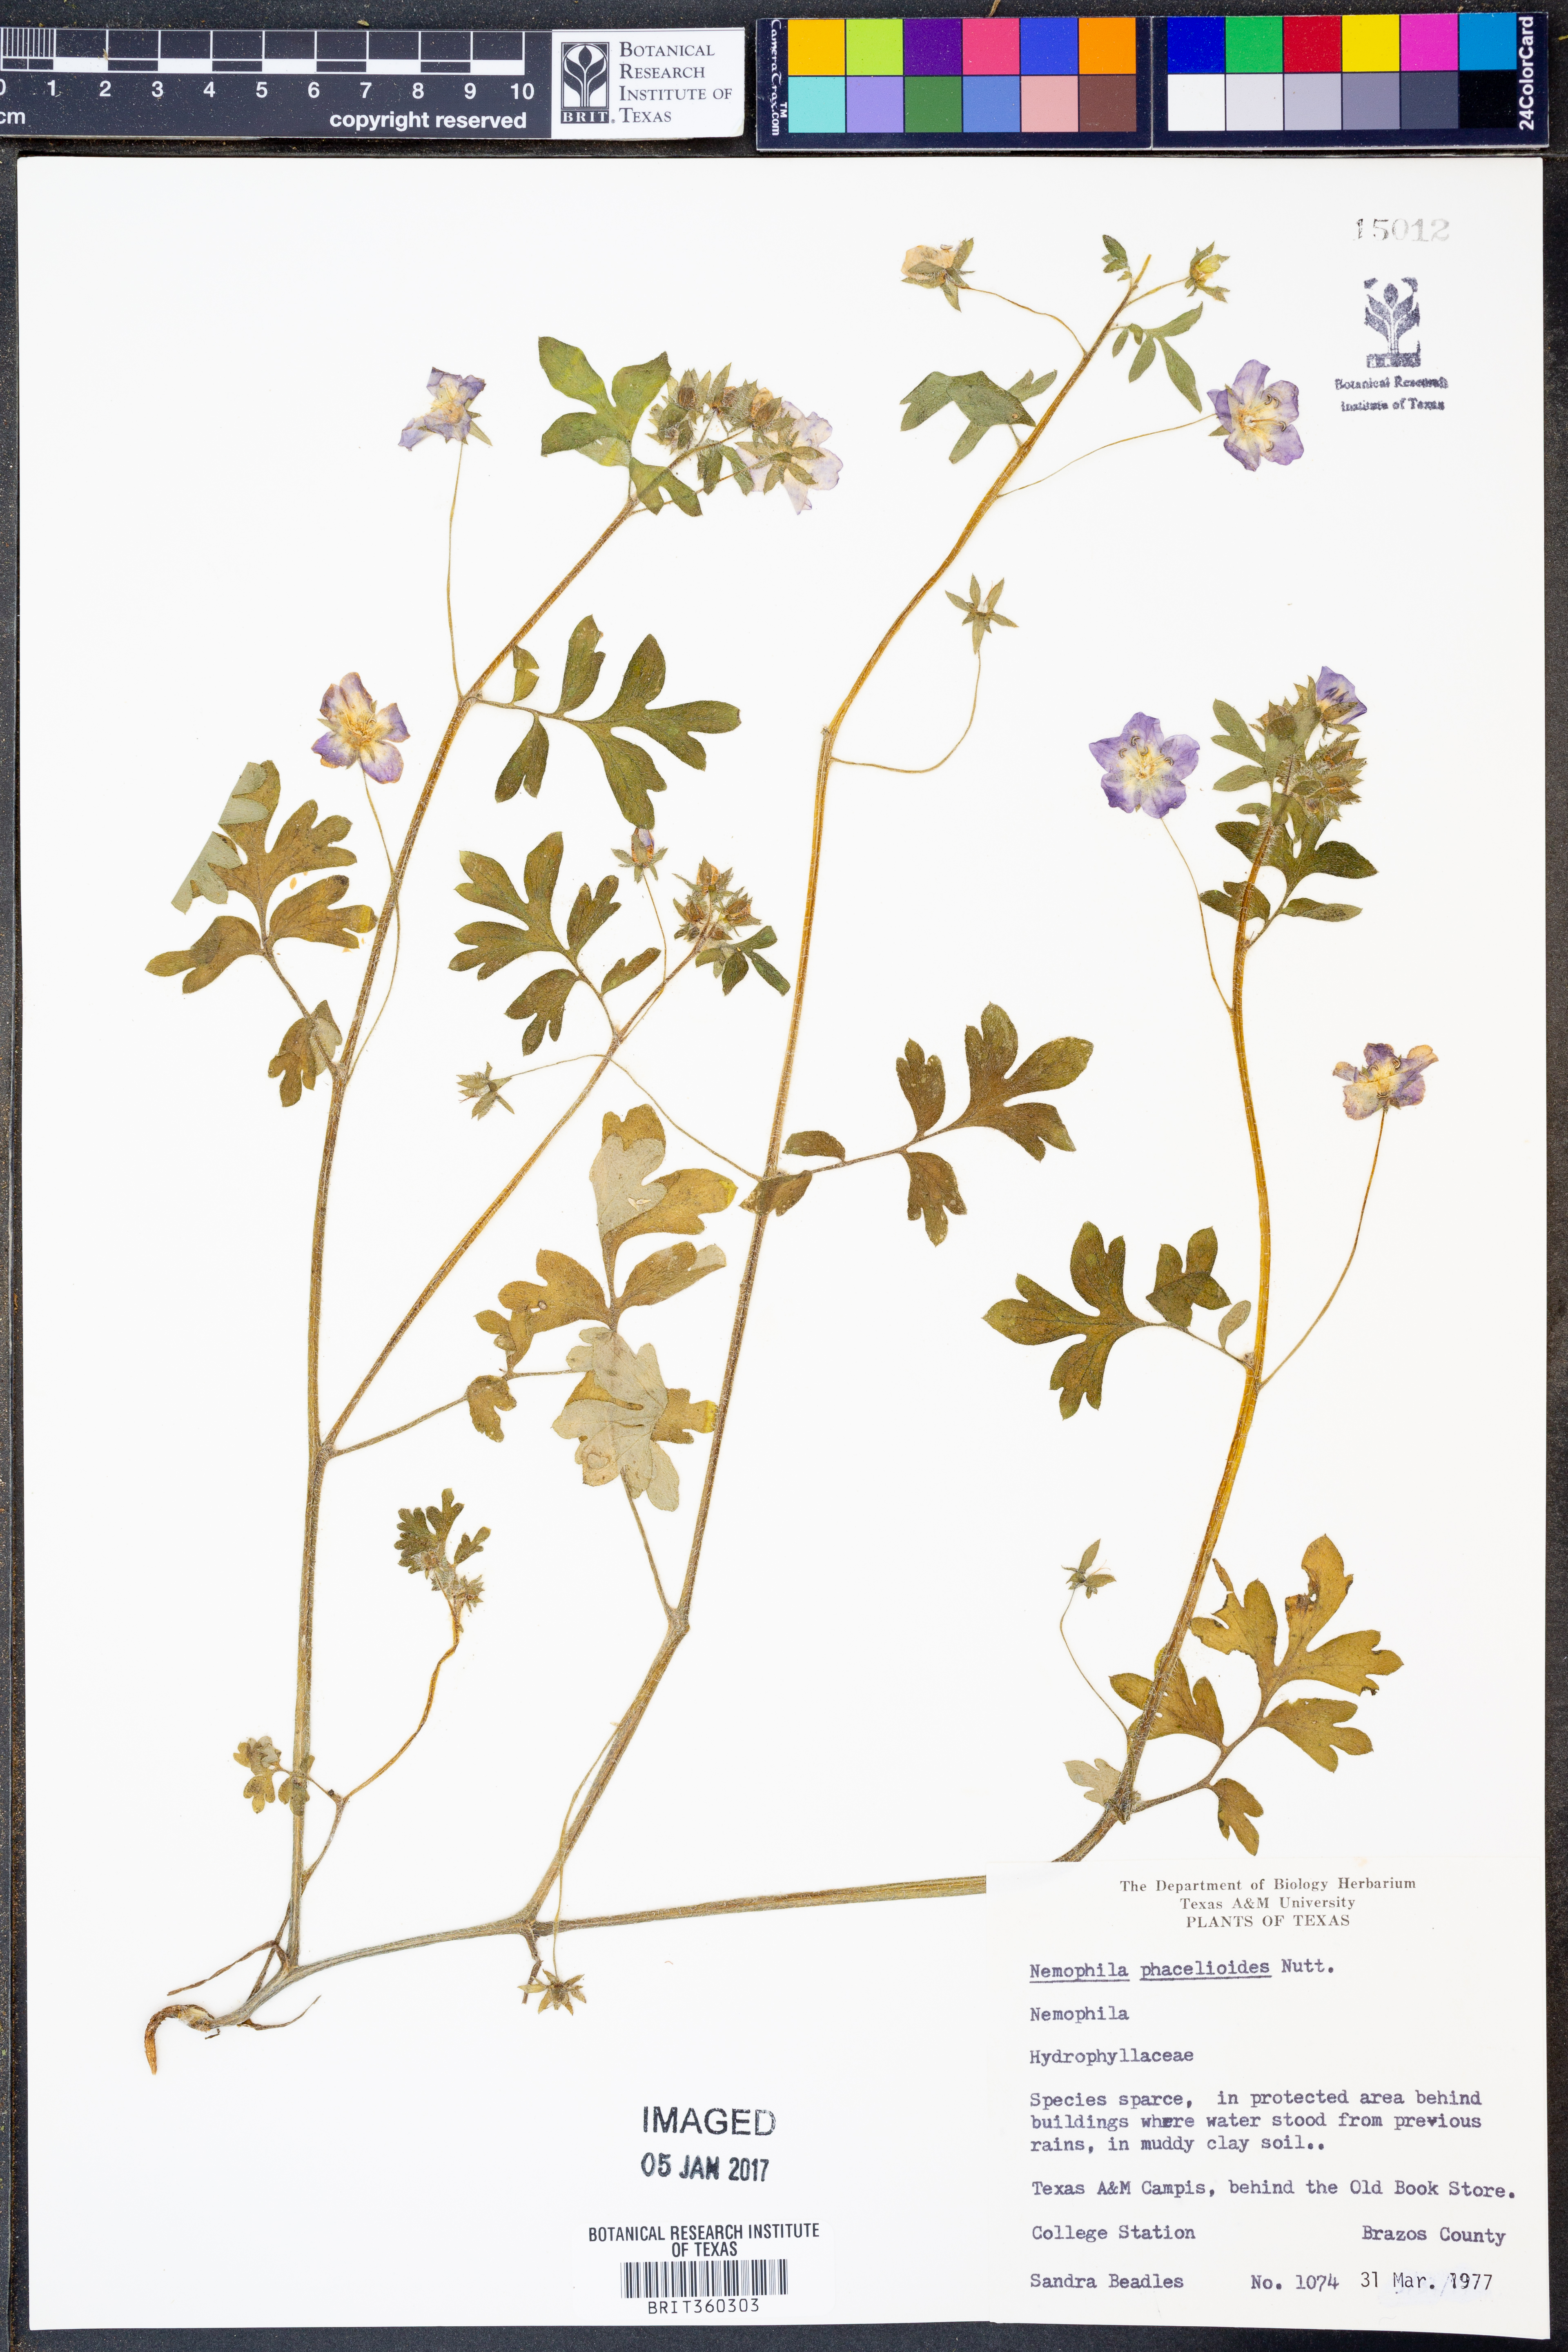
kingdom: Plantae
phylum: Tracheophyta
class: Magnoliopsida
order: Boraginales
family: Hydrophyllaceae
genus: Nemophila
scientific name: Nemophila phacelioides
